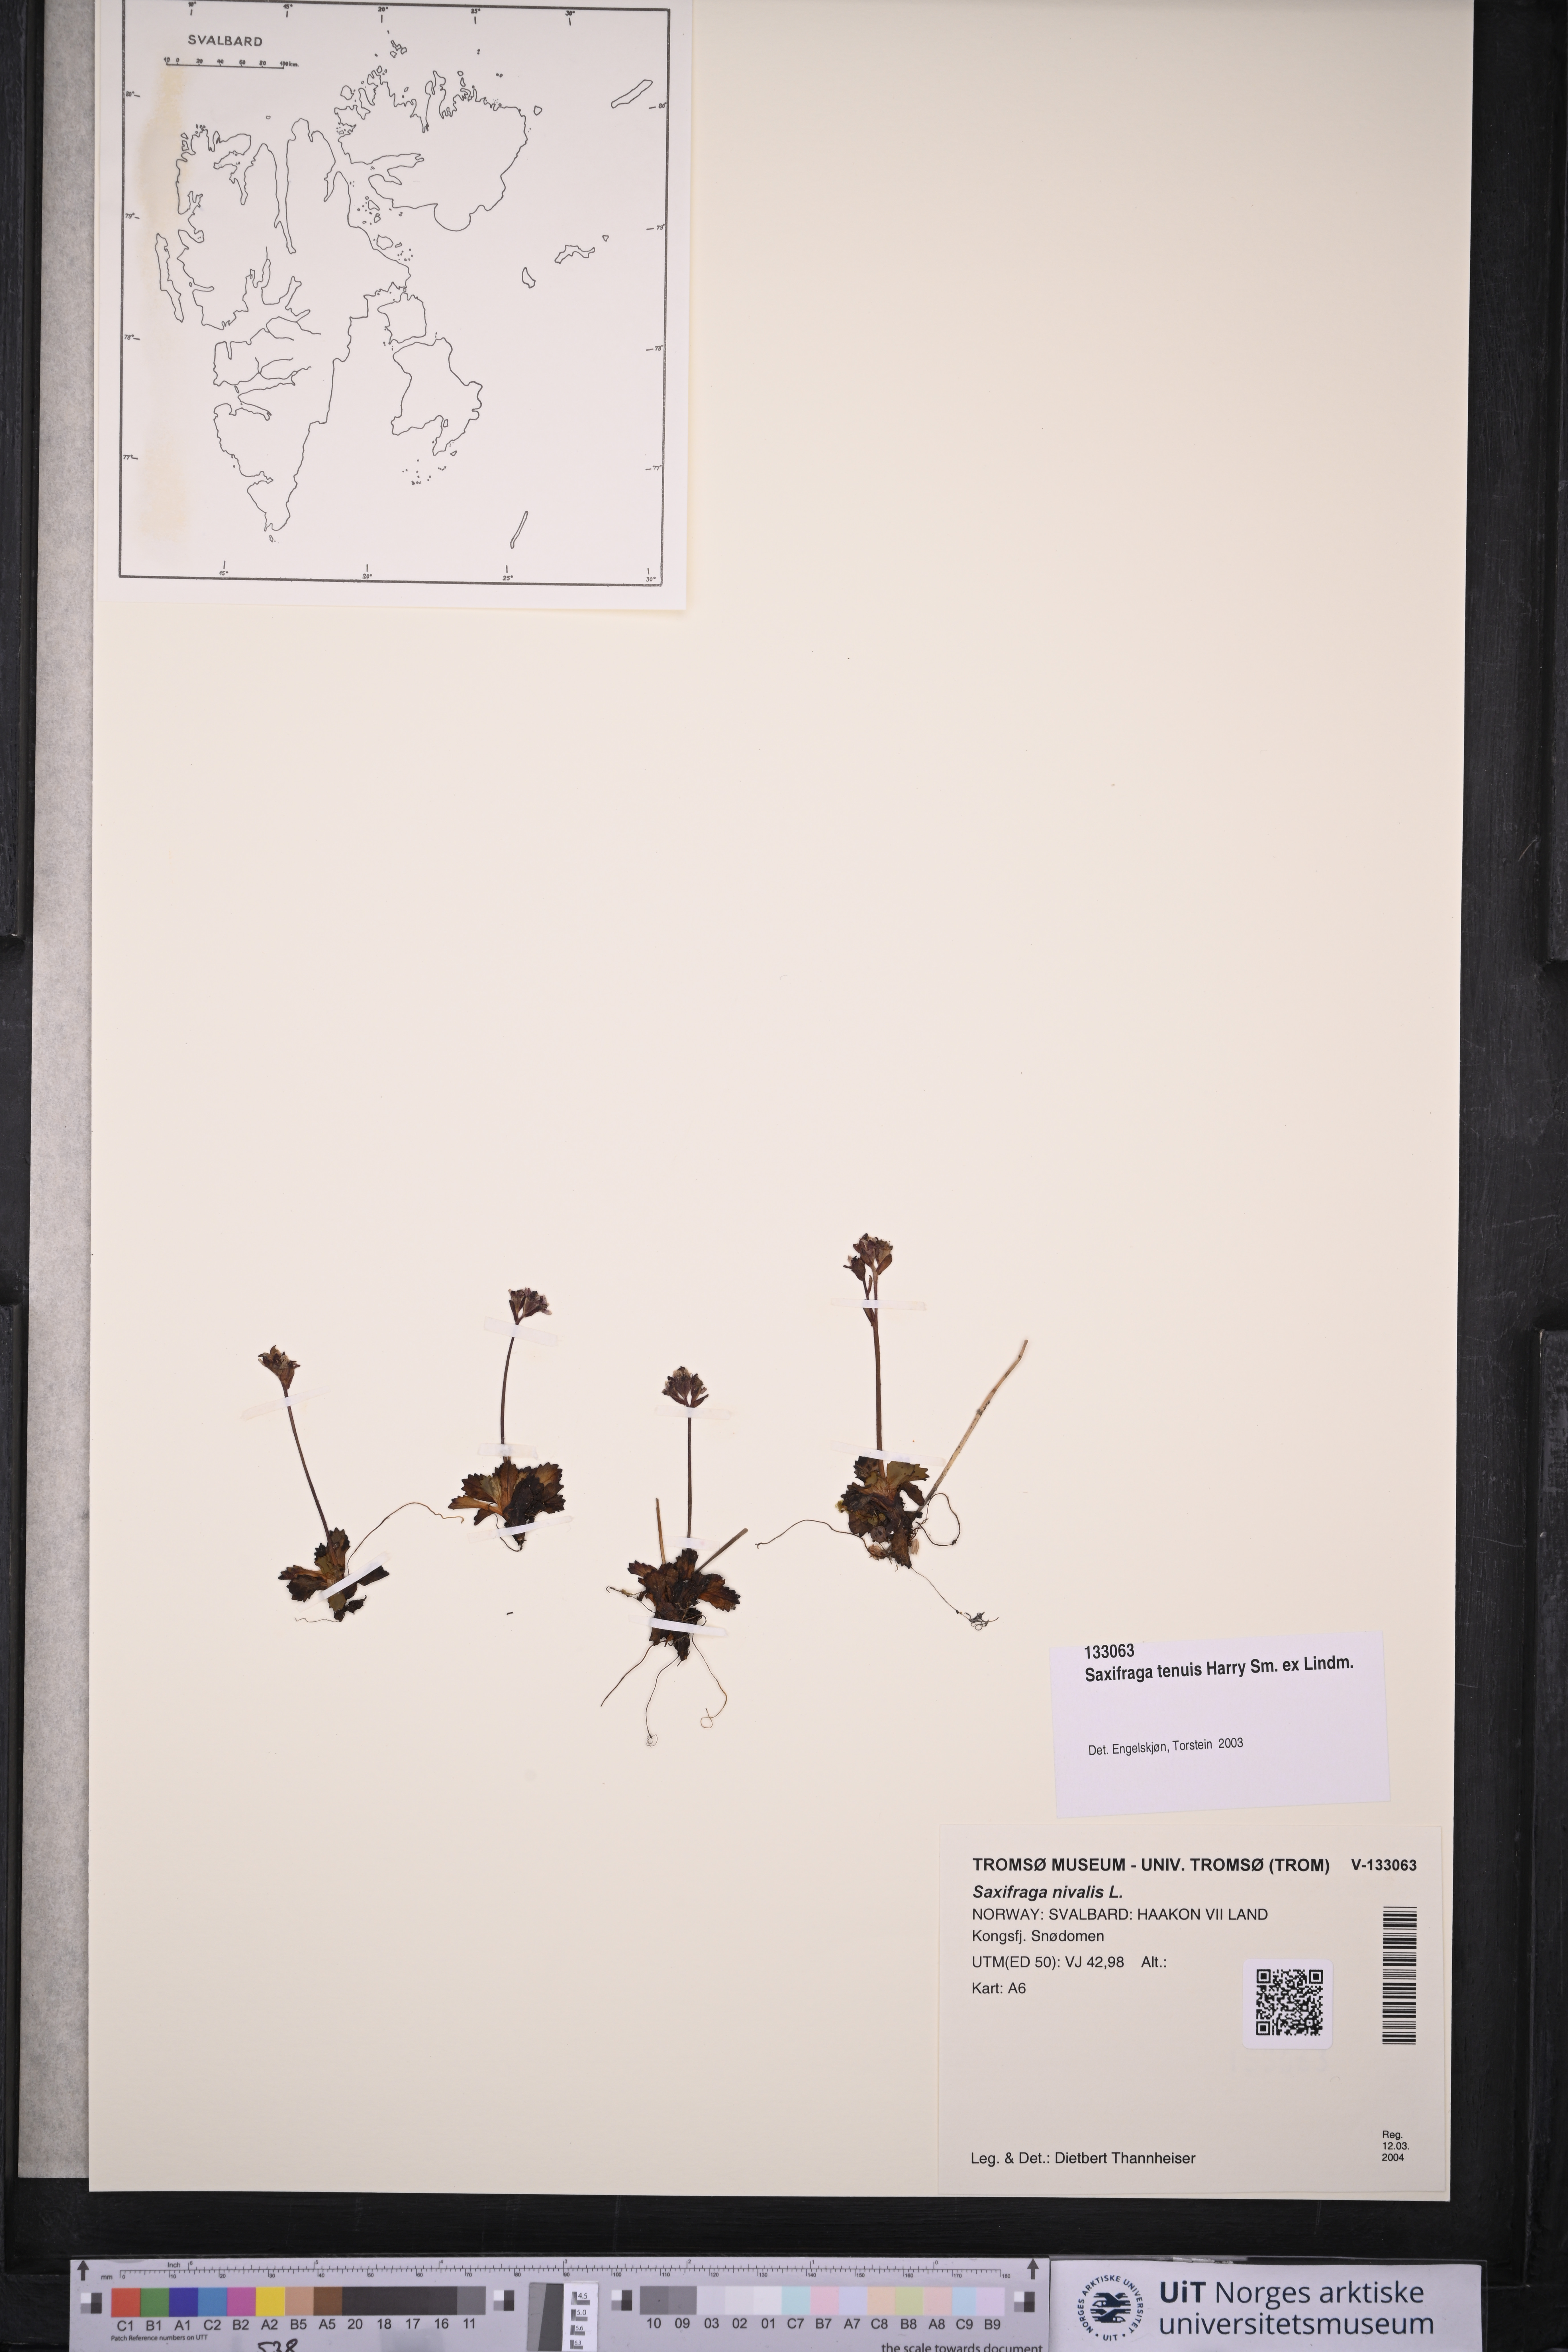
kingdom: Plantae
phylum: Tracheophyta
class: Magnoliopsida
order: Saxifragales
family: Saxifragaceae
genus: Micranthes
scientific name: Micranthes tenuis
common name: Ottertail pass saxifrage
